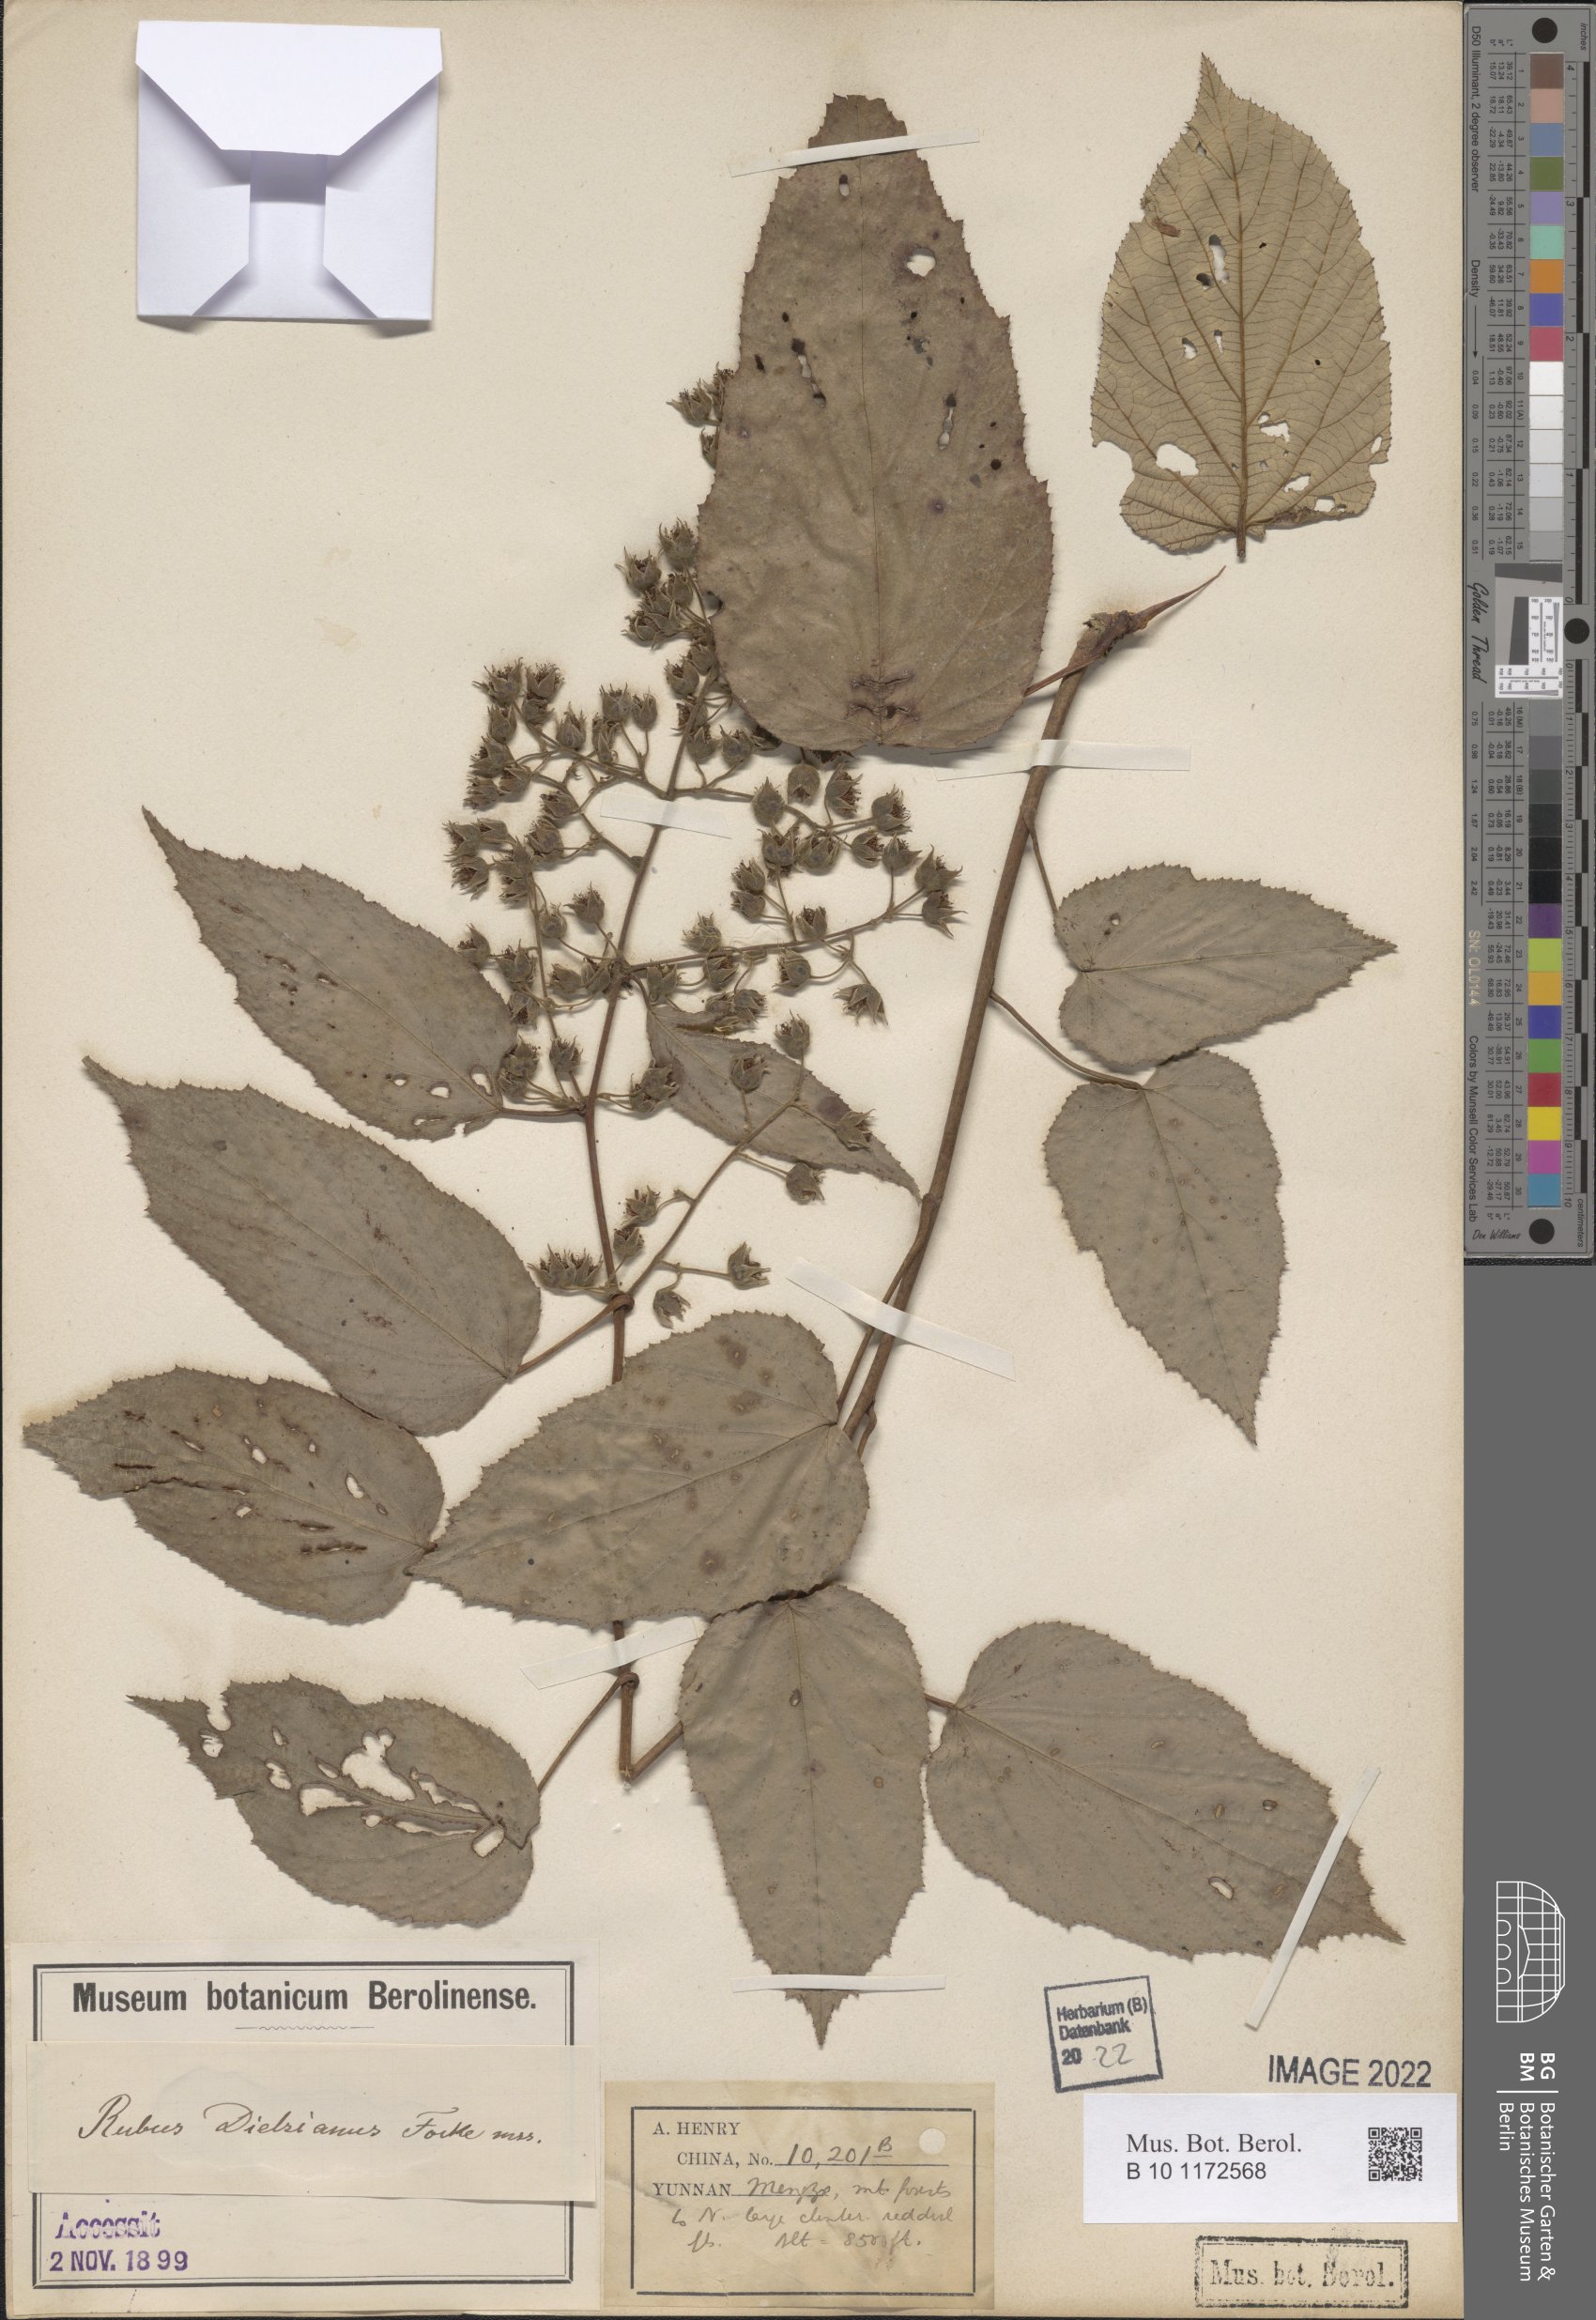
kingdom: Plantae
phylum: Tracheophyta
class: Magnoliopsida
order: Rosales
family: Rosaceae
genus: Rubus
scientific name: Rubus xanthoneurus
